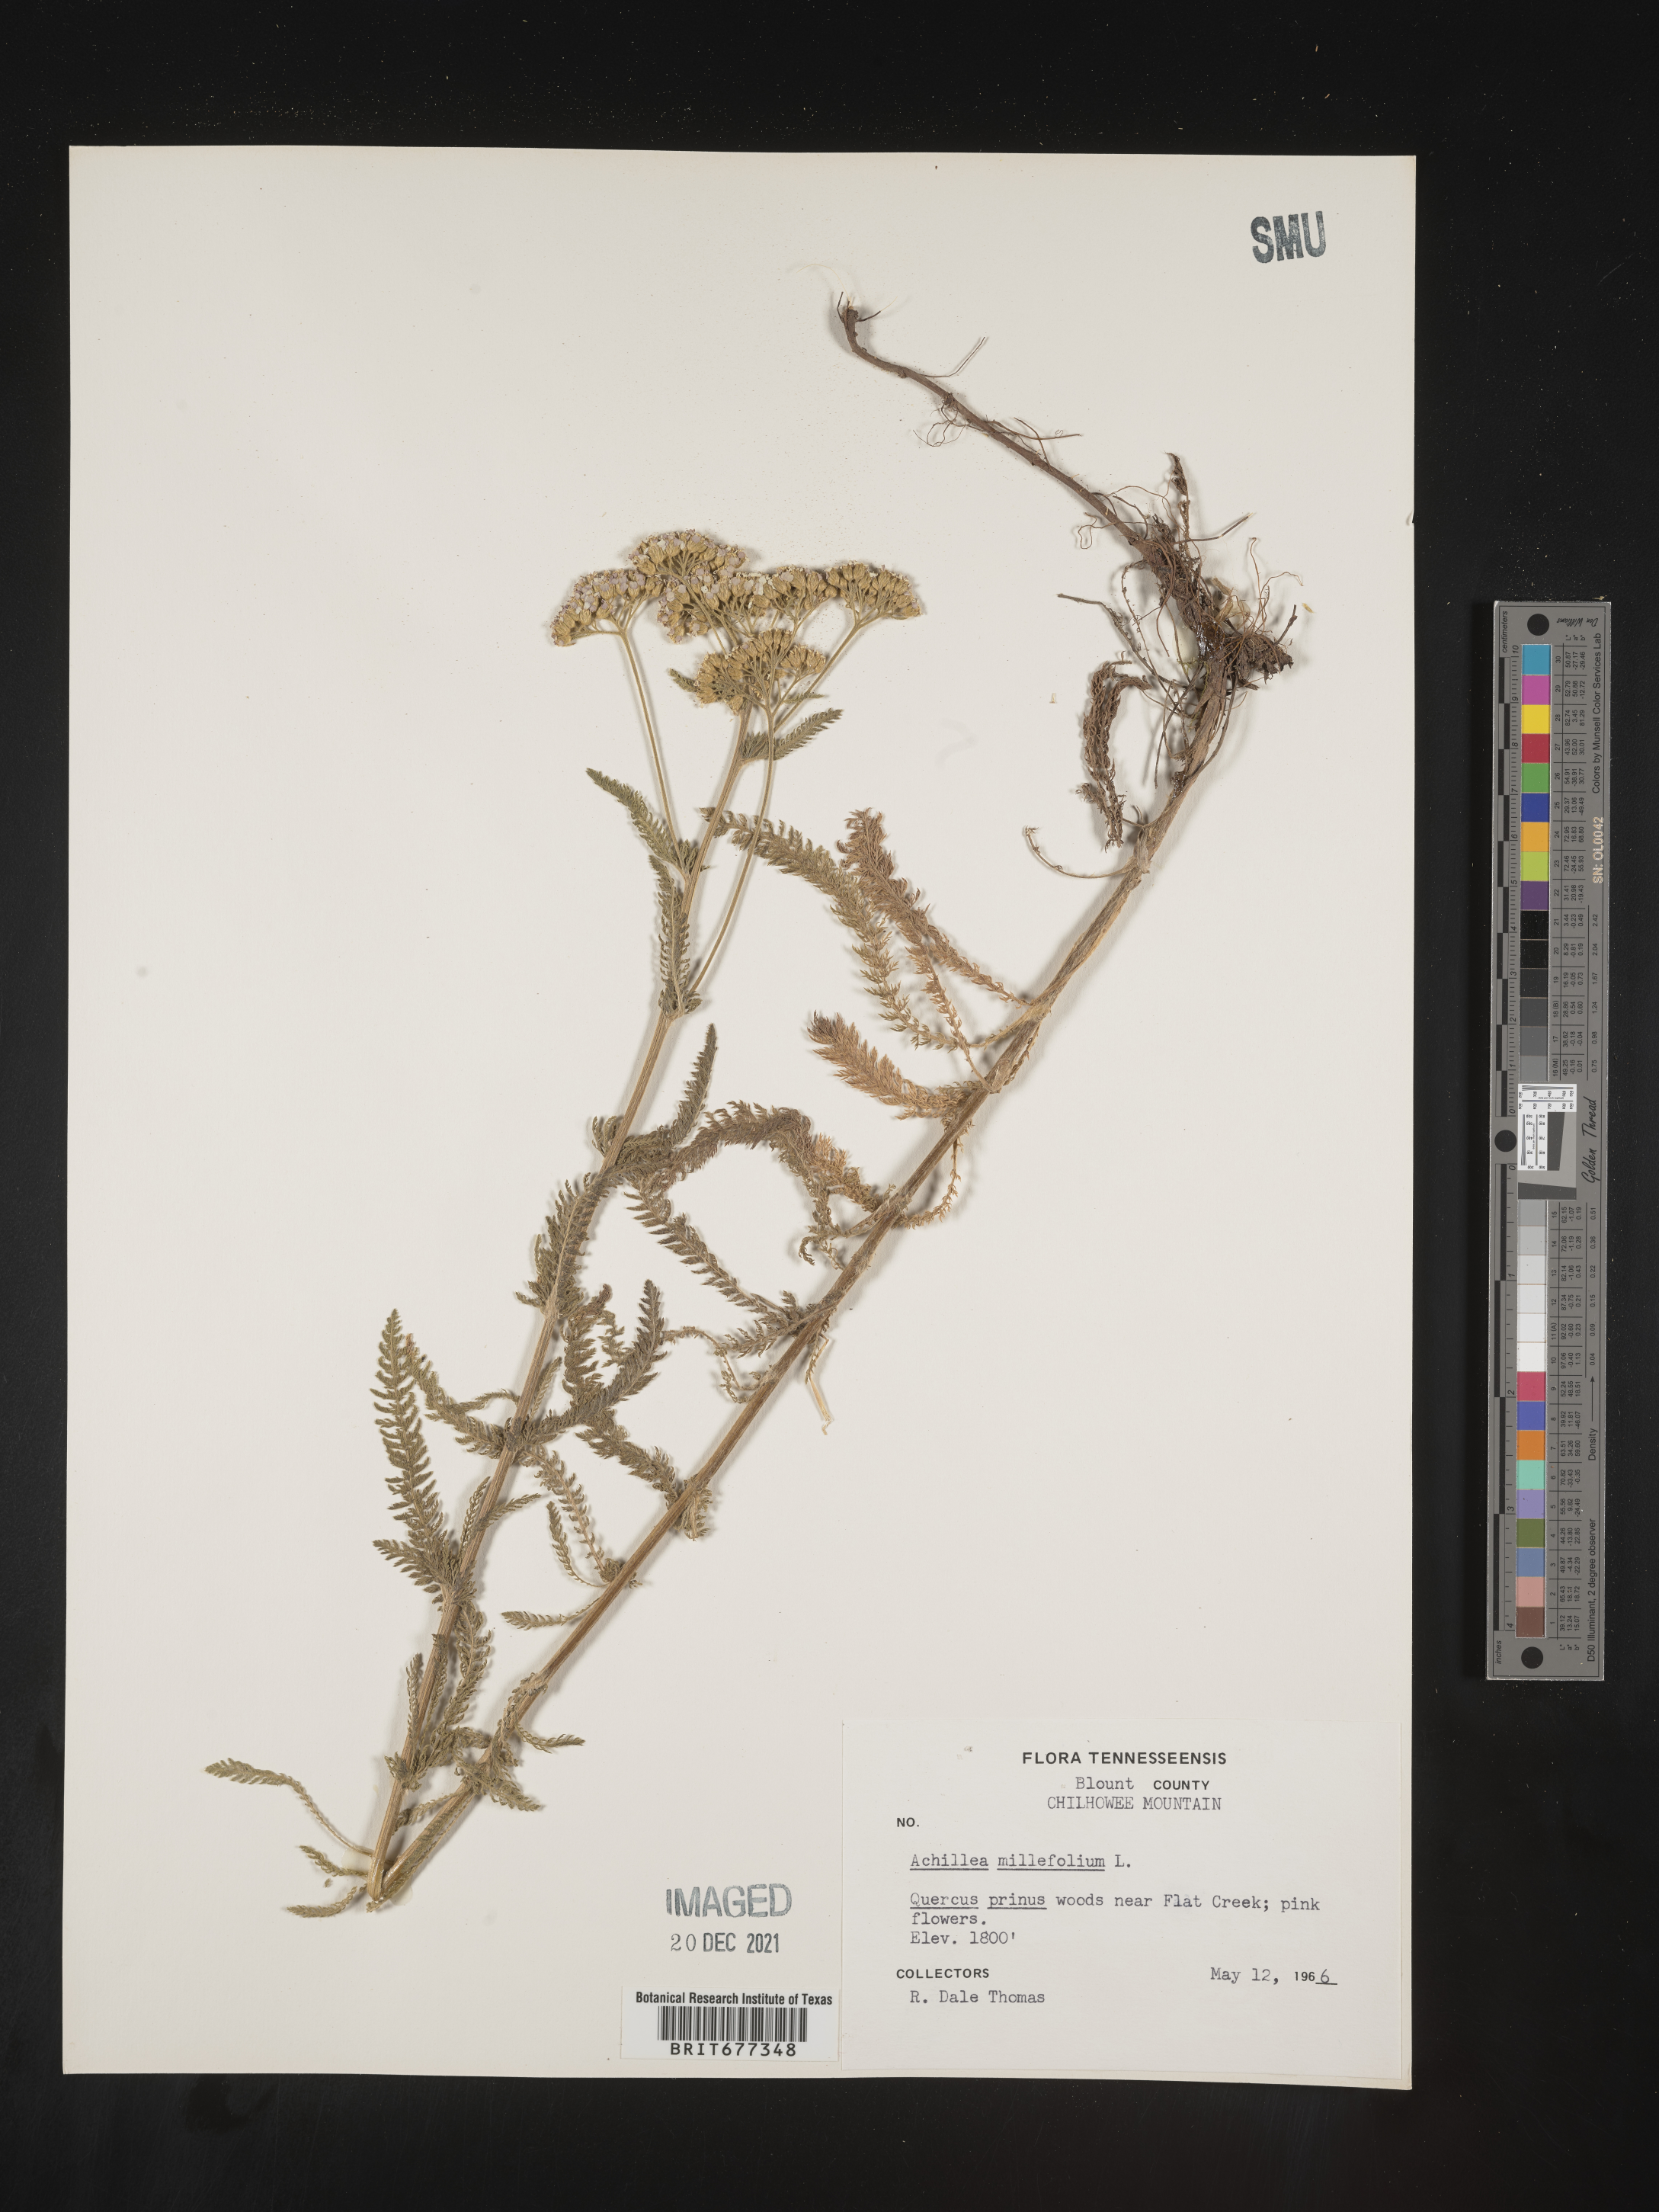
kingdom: Plantae
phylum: Tracheophyta
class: Magnoliopsida
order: Asterales
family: Asteraceae
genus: Achillea
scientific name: Achillea millefolium
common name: Yarrow
